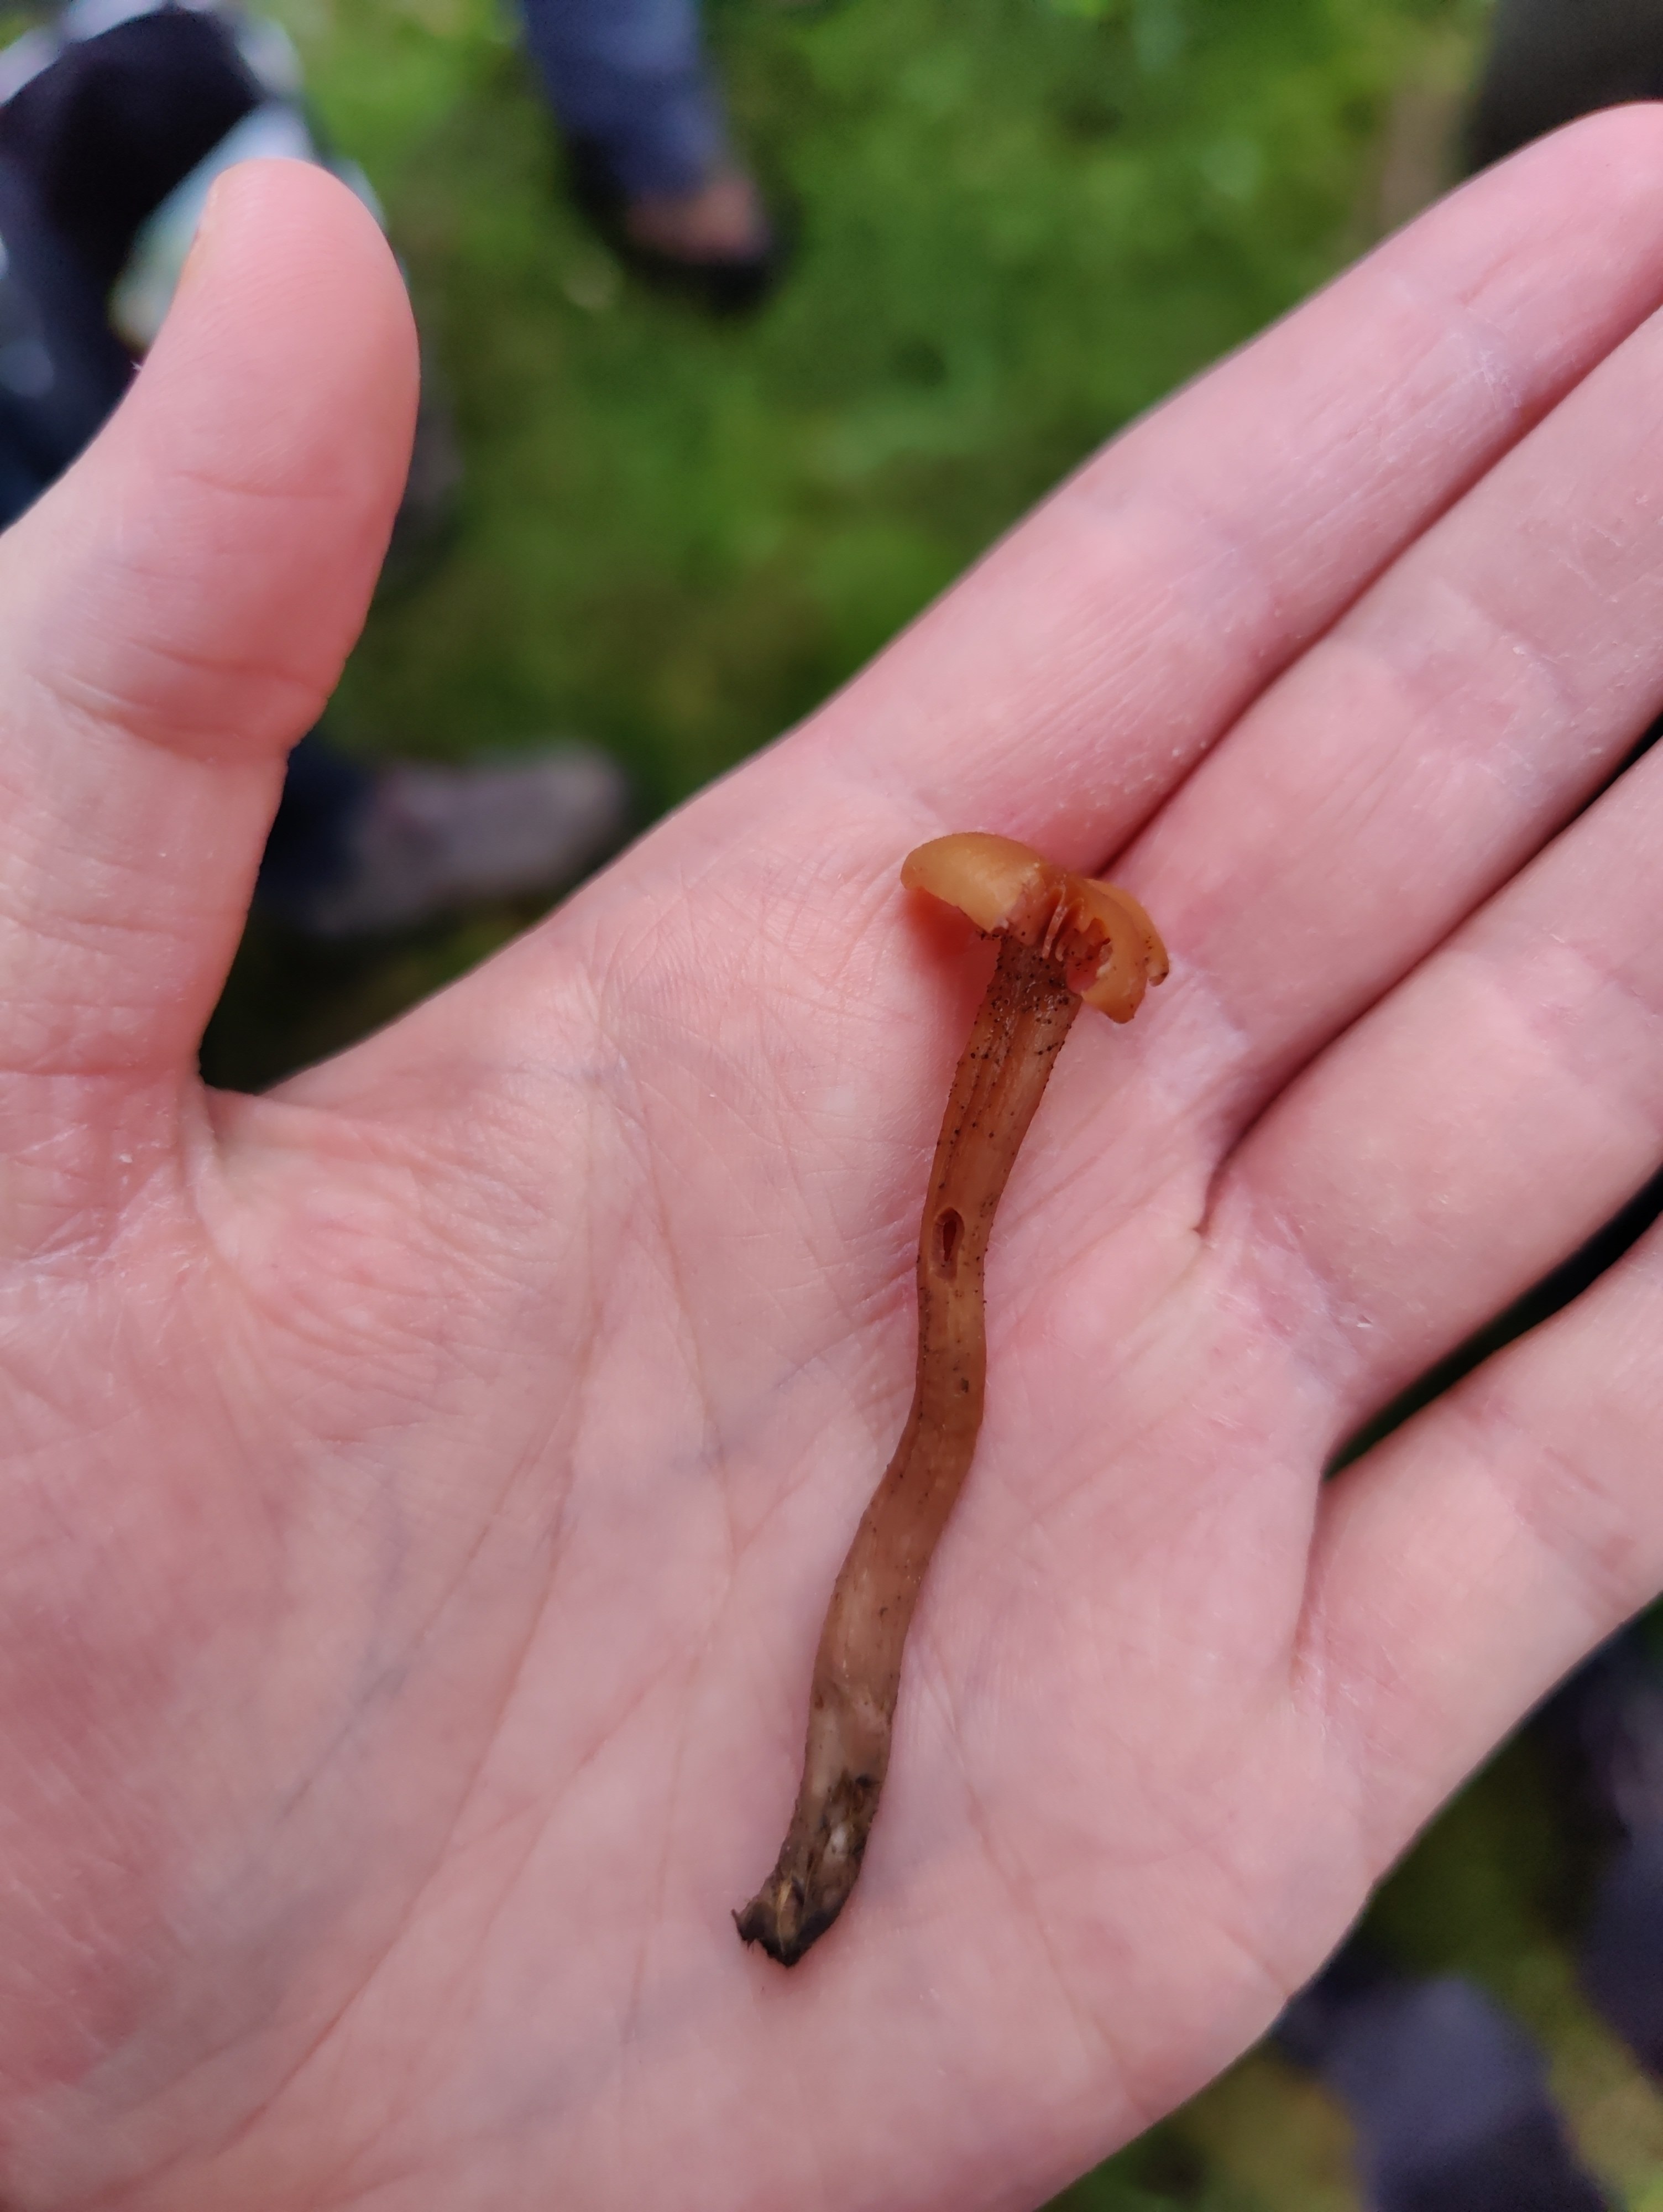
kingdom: Fungi
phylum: Basidiomycota
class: Agaricomycetes
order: Agaricales
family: Hydnangiaceae
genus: Laccaria
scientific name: Laccaria laccata
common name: rød ametysthat
